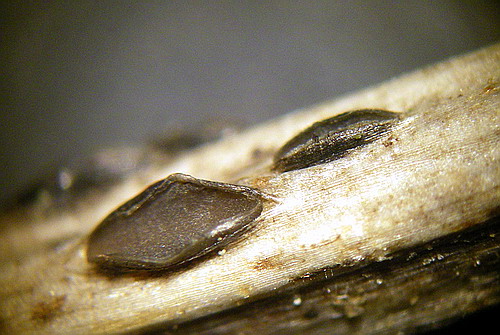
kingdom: Fungi
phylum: Ascomycota
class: Leotiomycetes
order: Helotiales
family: Ploettnerulaceae
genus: Pyrenopeziza
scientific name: Pyrenopeziza petiolaris
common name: ahorn-kerneskive
